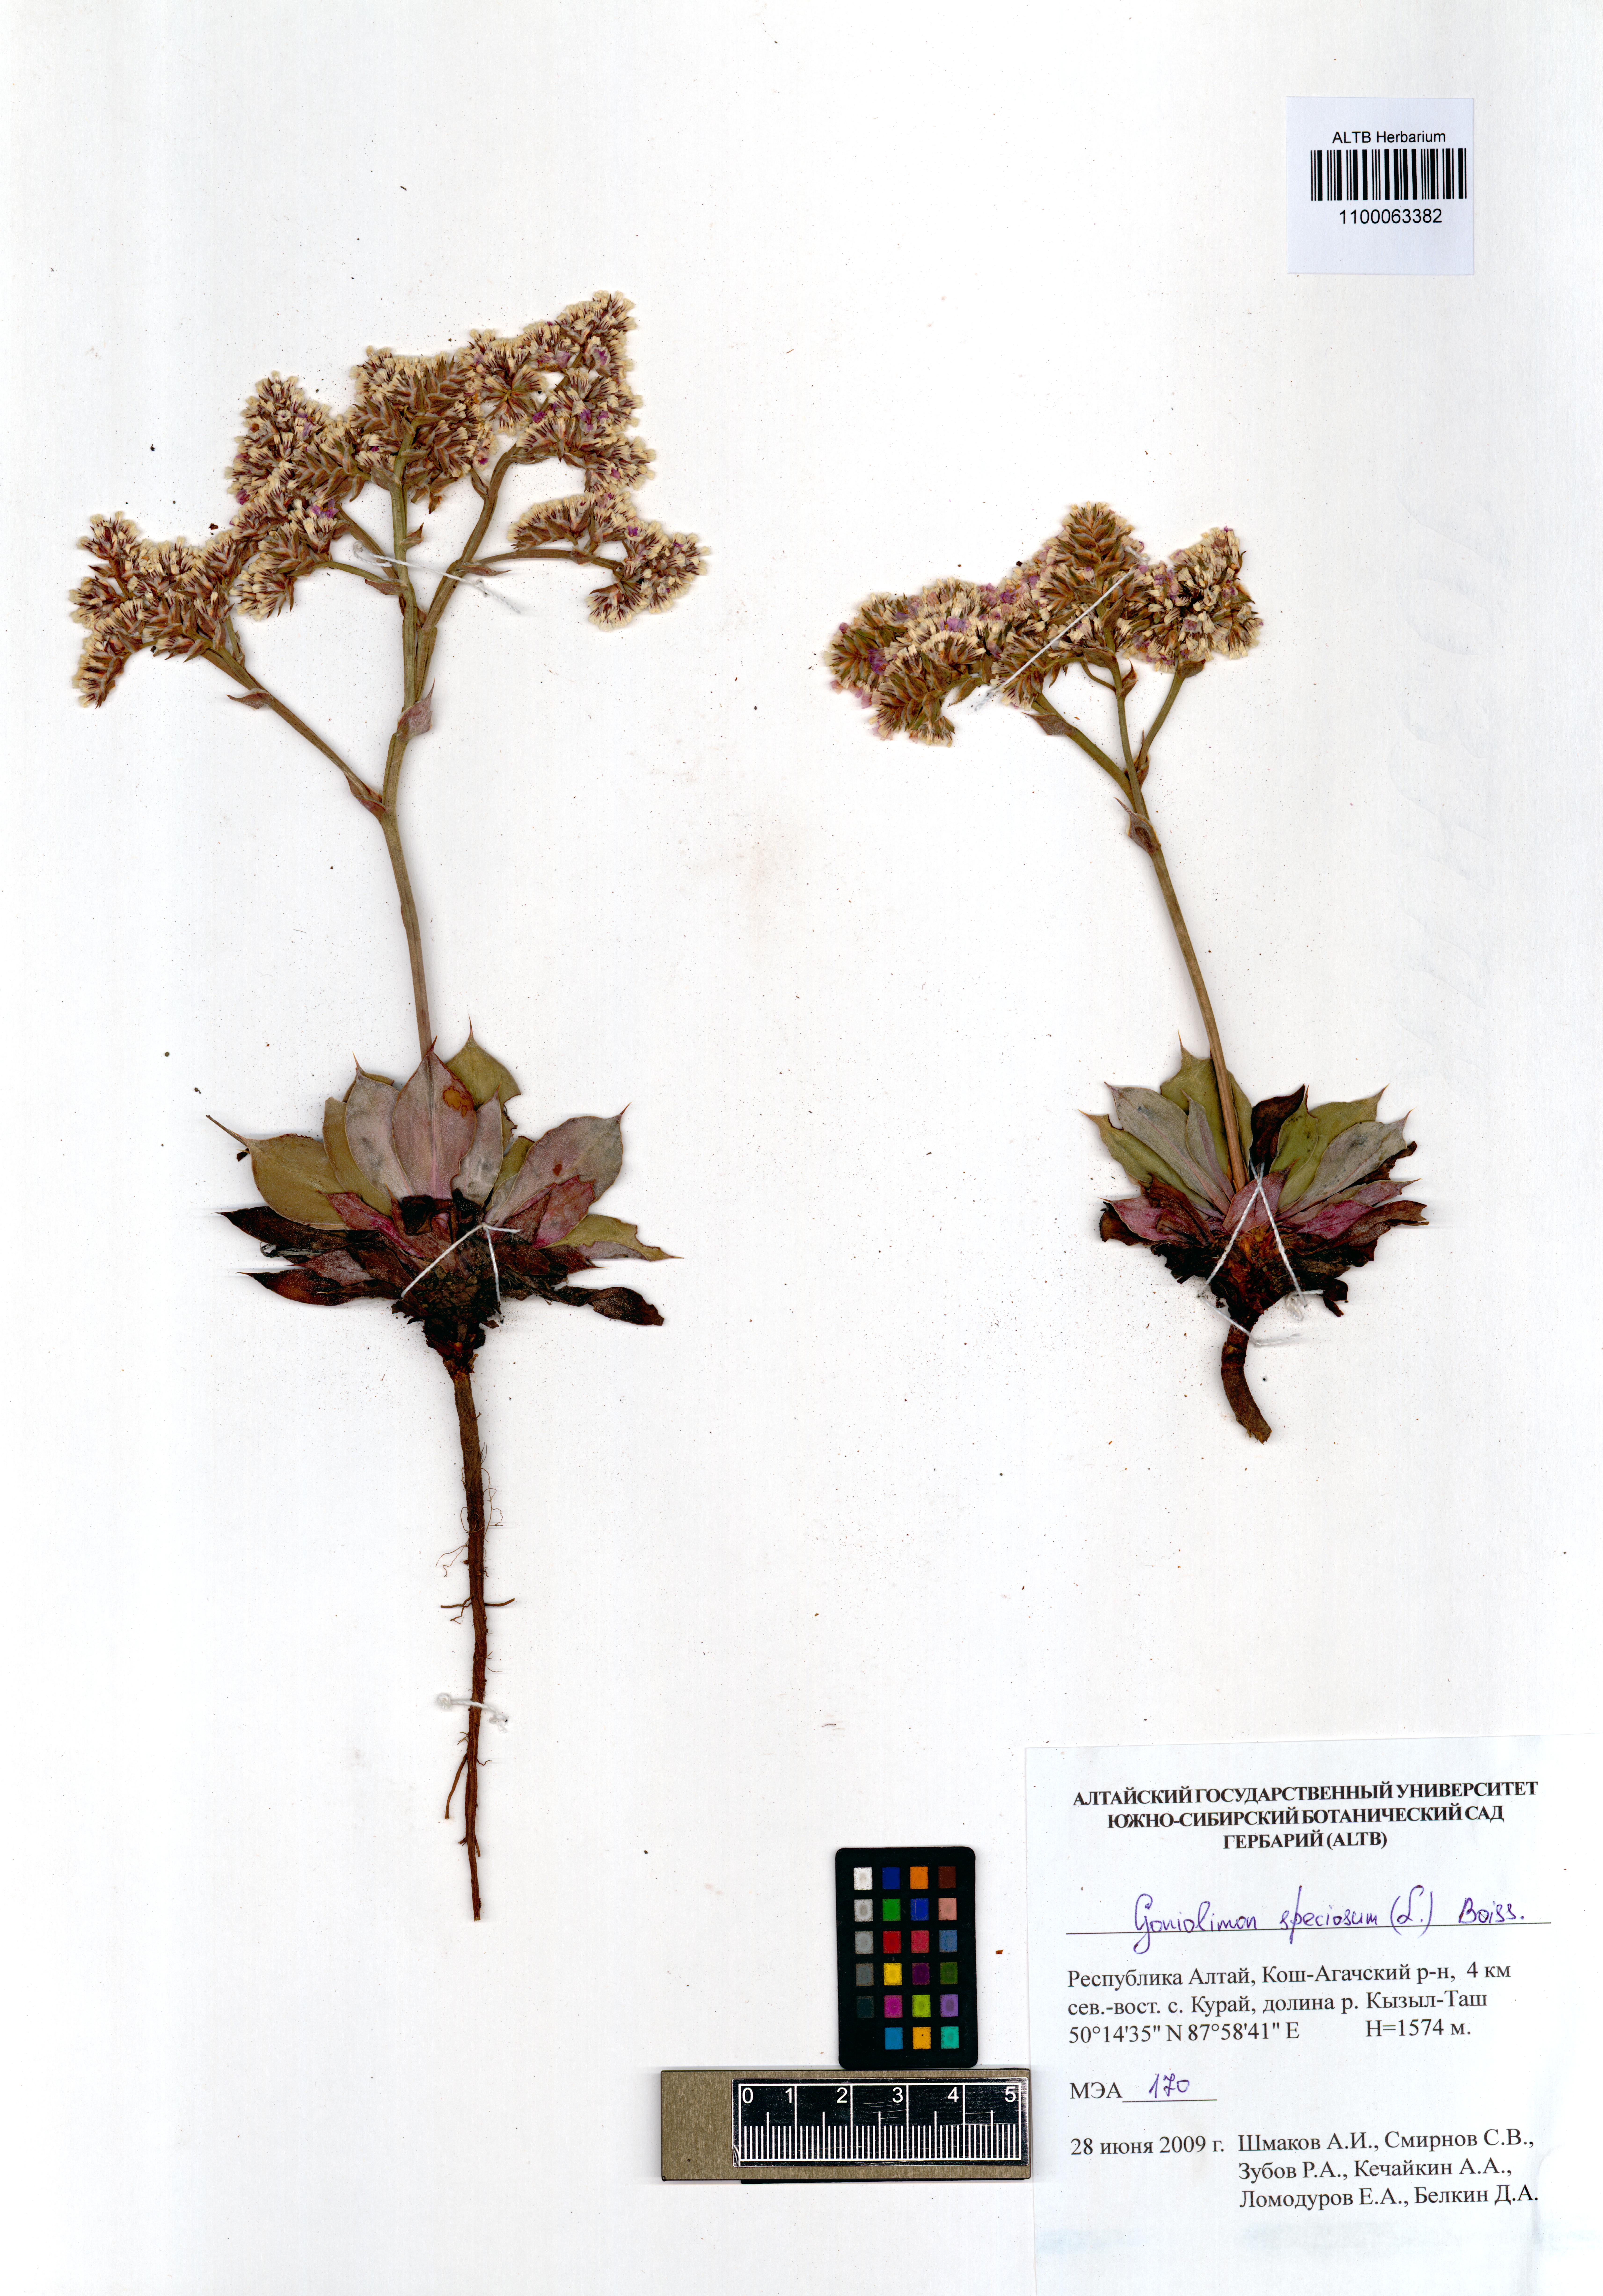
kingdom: Plantae
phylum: Tracheophyta
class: Magnoliopsida
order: Caryophyllales
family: Plumbaginaceae
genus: Goniolimon
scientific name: Goniolimon speciosum
